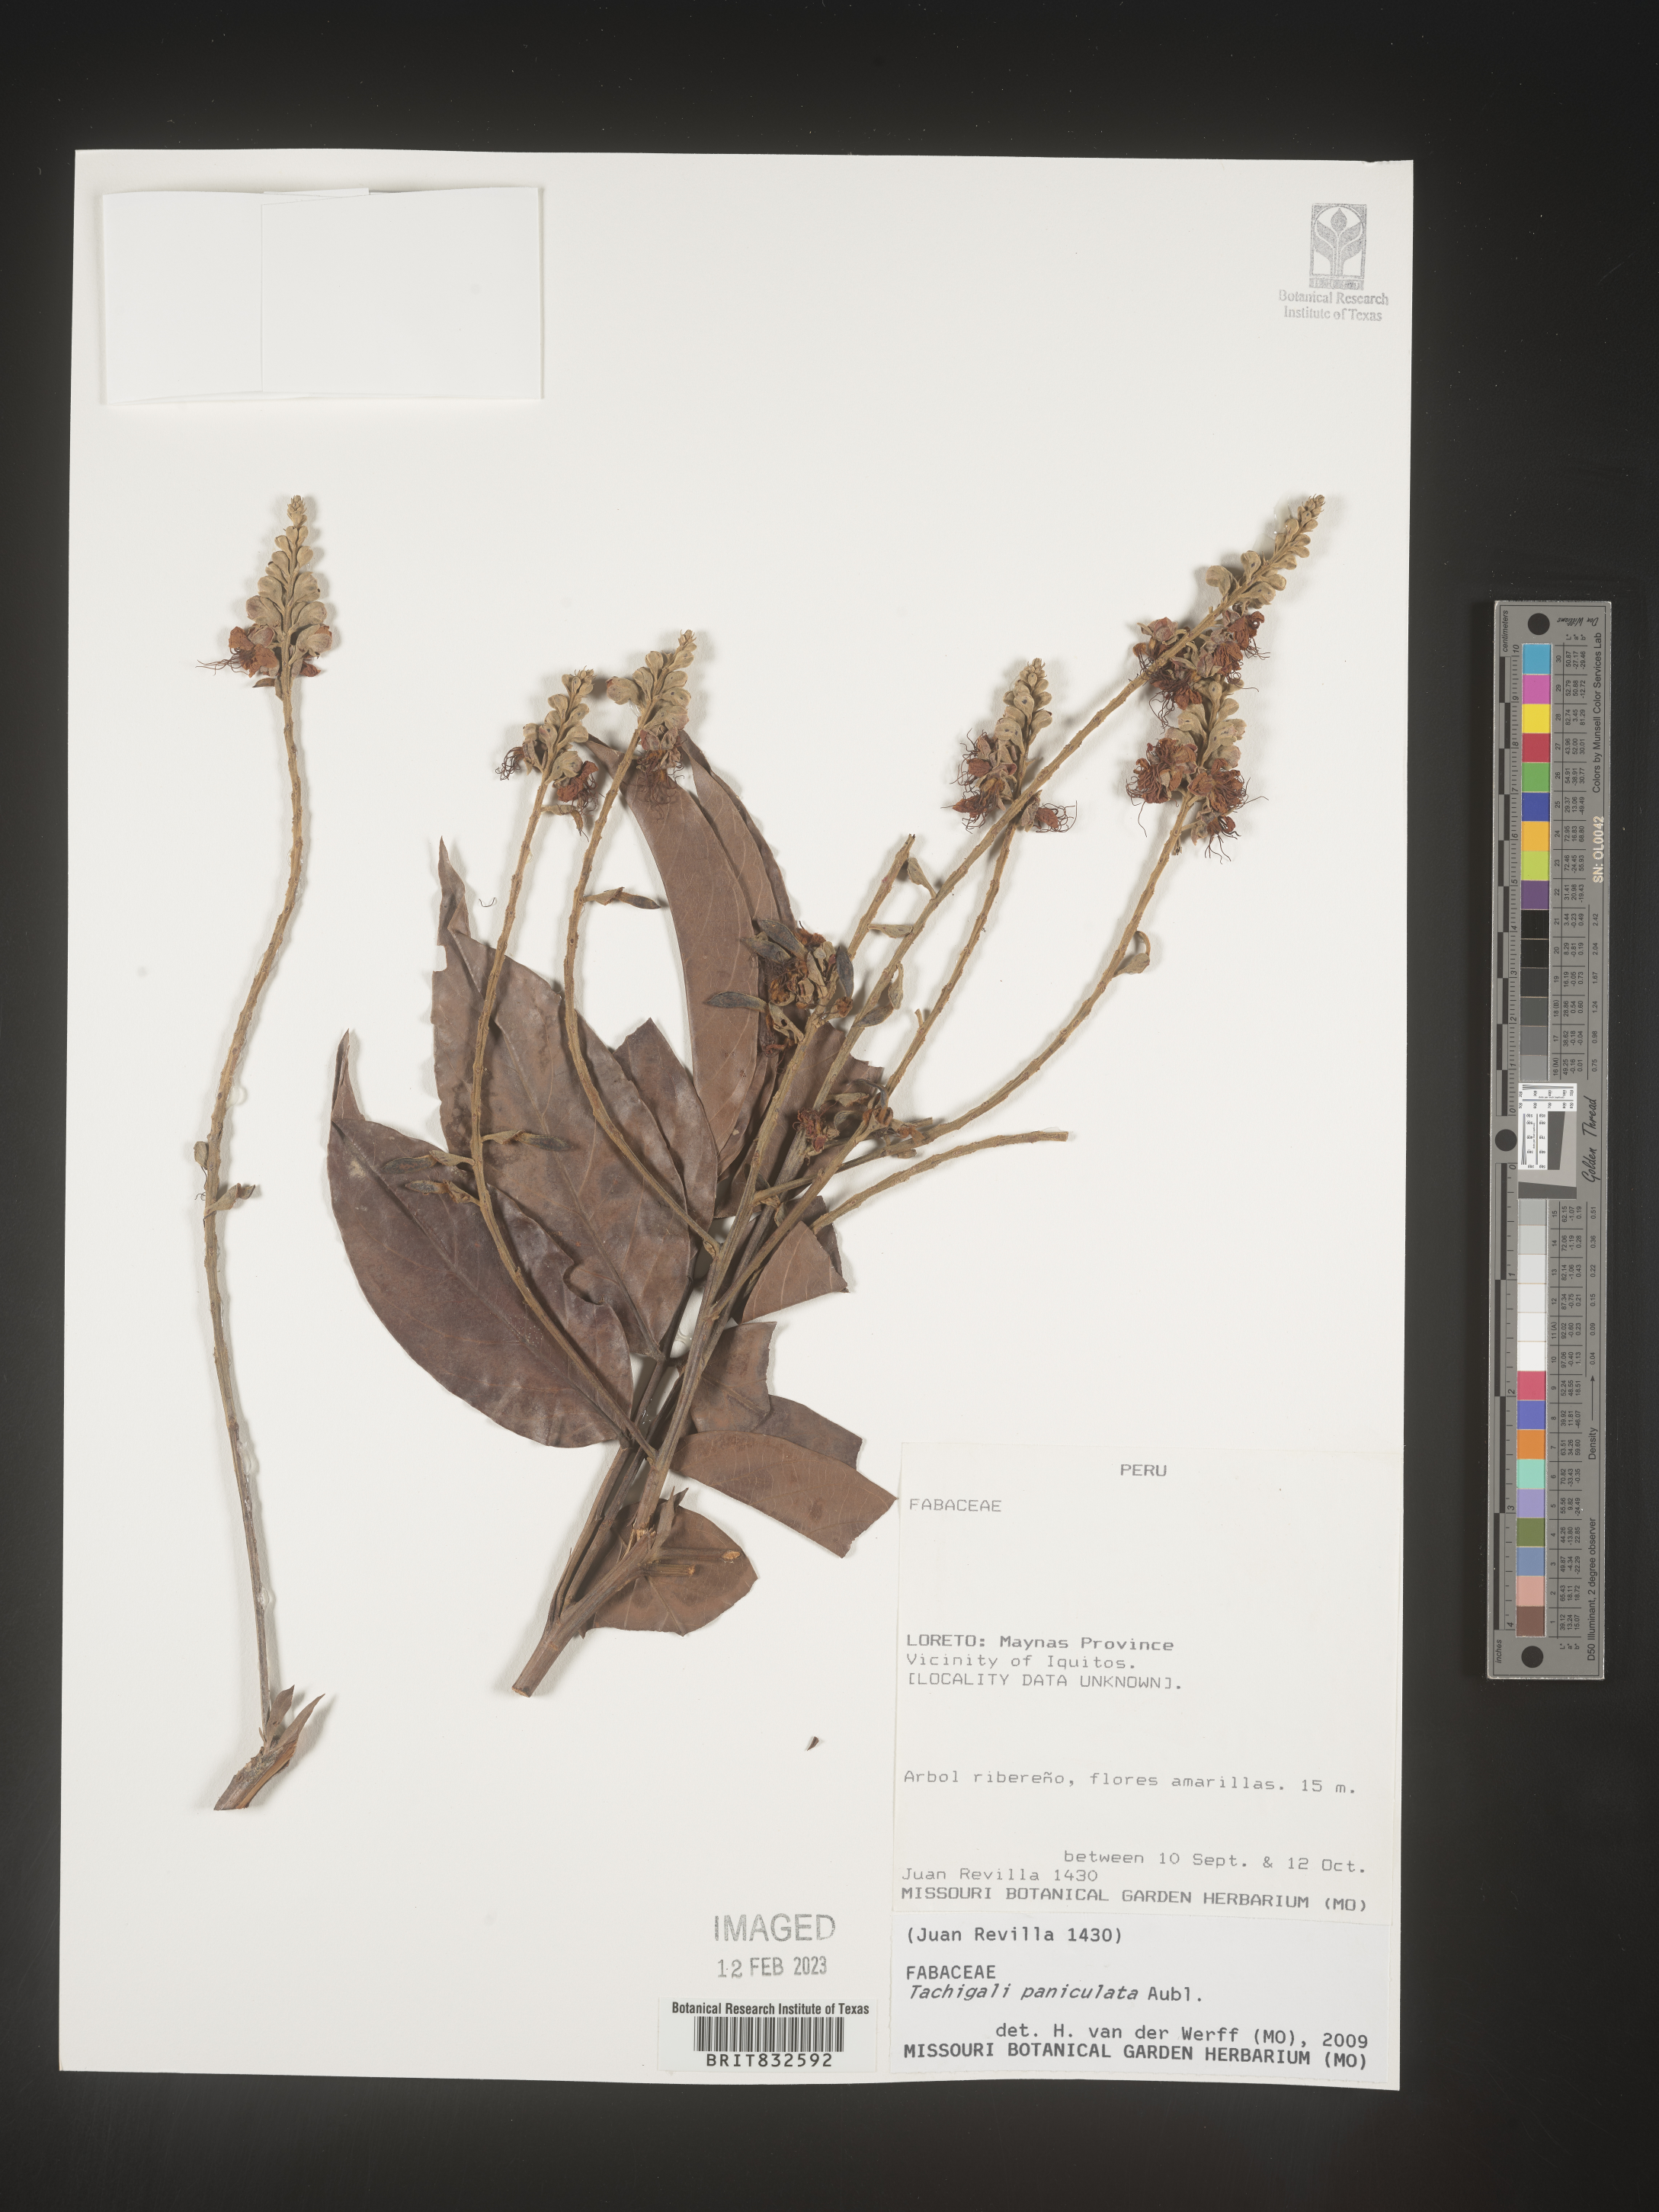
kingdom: Plantae
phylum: Tracheophyta
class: Magnoliopsida
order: Fabales
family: Fabaceae
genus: Tachigali
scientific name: Tachigali
